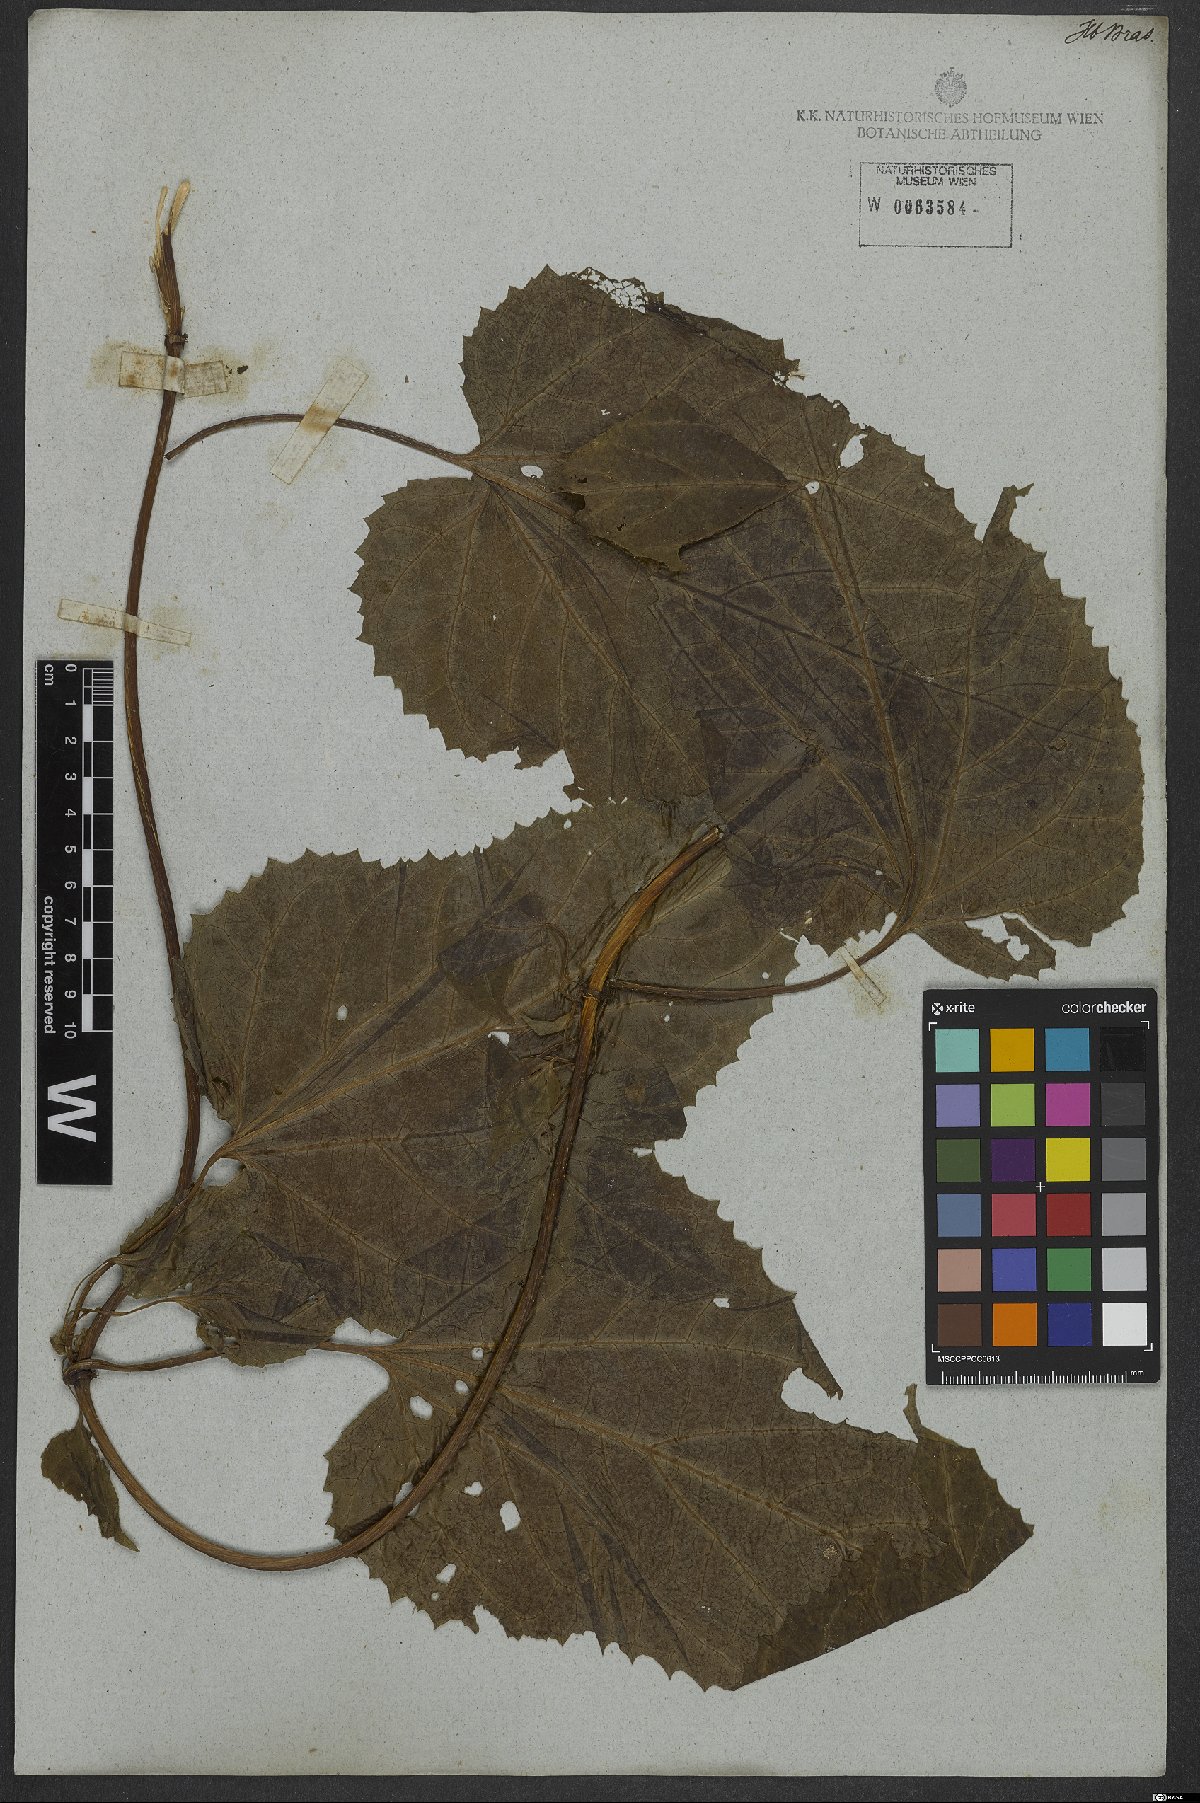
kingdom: Plantae
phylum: Tracheophyta
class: Magnoliopsida
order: Asterales
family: Asteraceae
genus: Mikania
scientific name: Mikania
